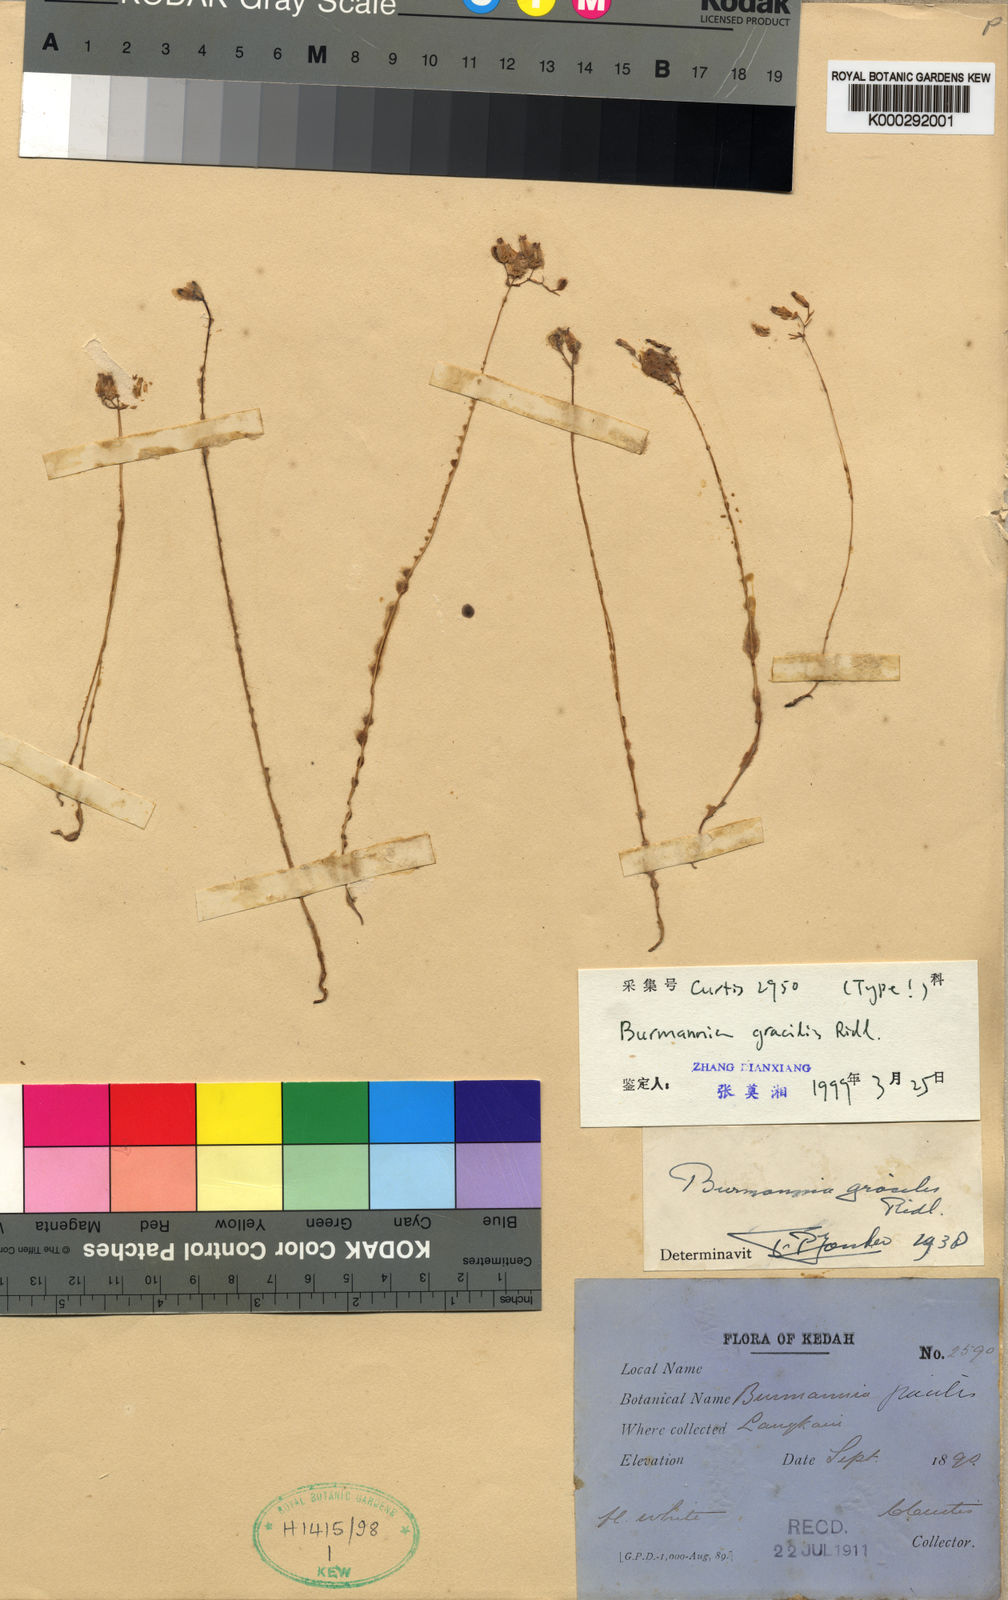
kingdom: Plantae
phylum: Tracheophyta
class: Liliopsida
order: Dioscoreales
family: Burmanniaceae
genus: Burmannia
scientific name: Burmannia gracilis
